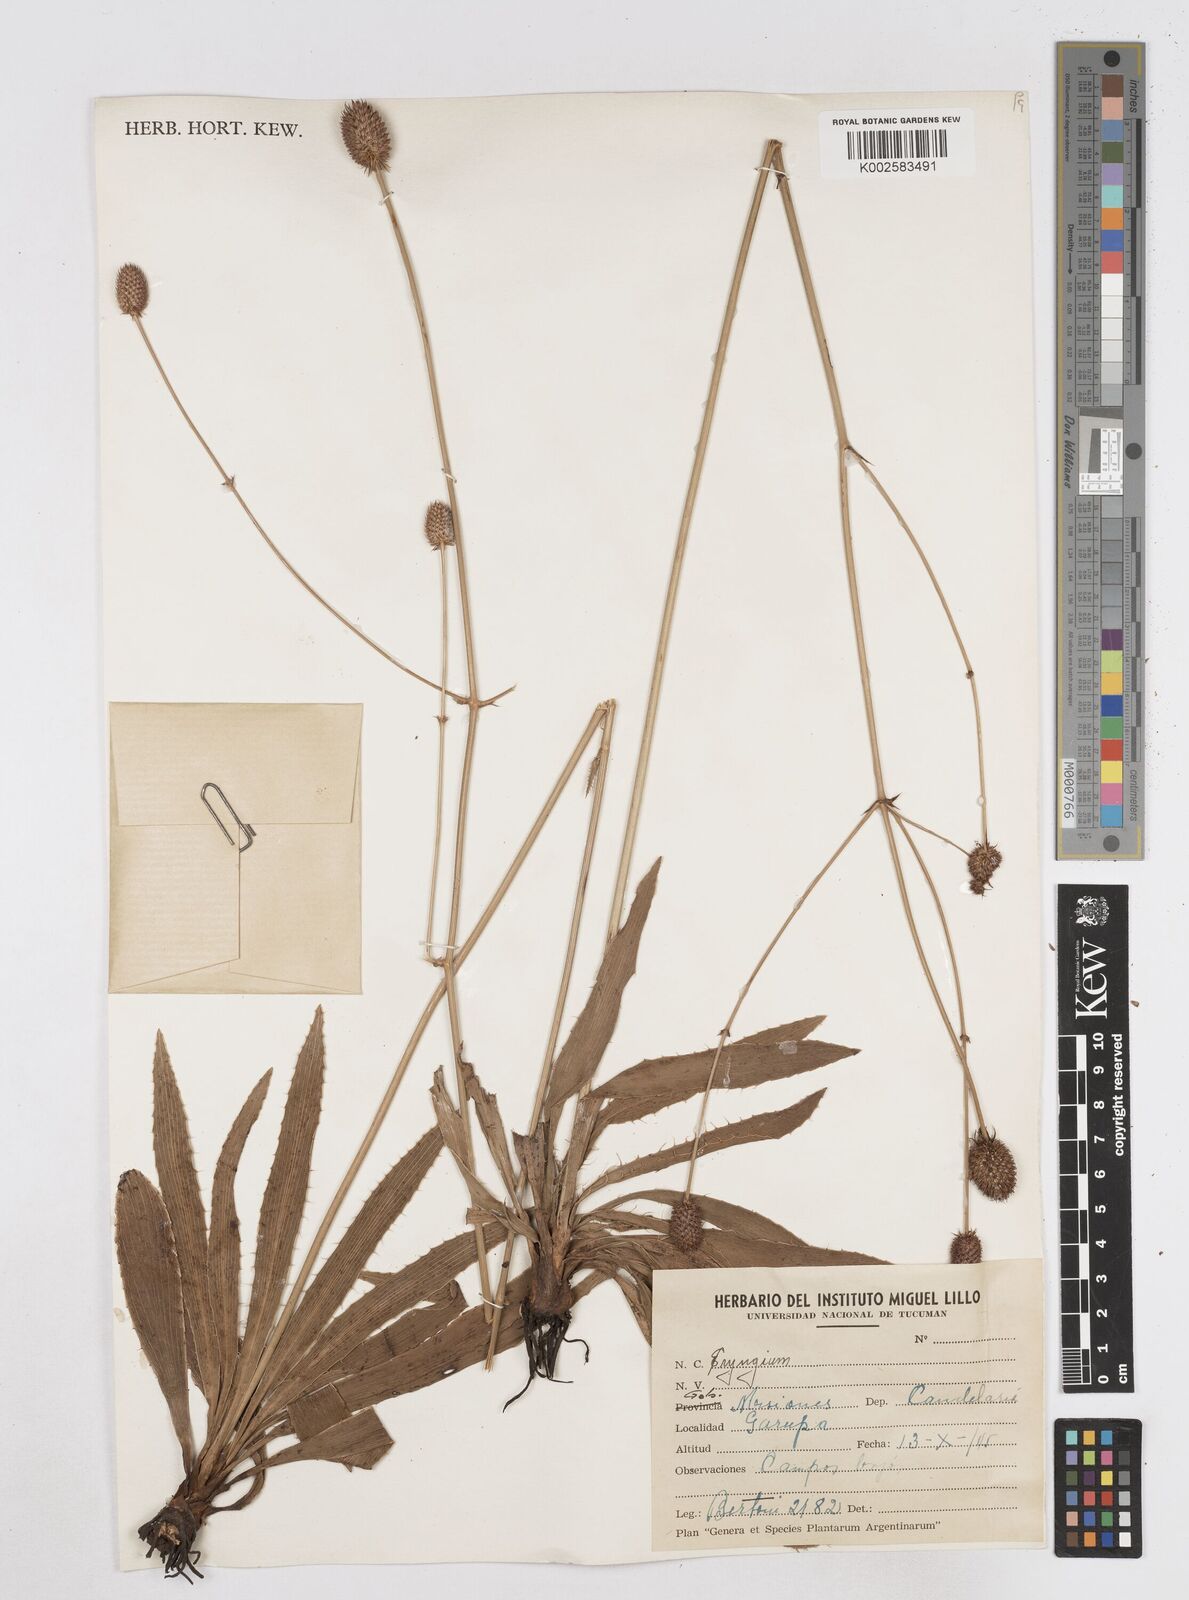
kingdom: Plantae
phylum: Tracheophyta
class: Magnoliopsida
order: Apiales
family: Apiaceae
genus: Eryngium
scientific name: Eryngium
